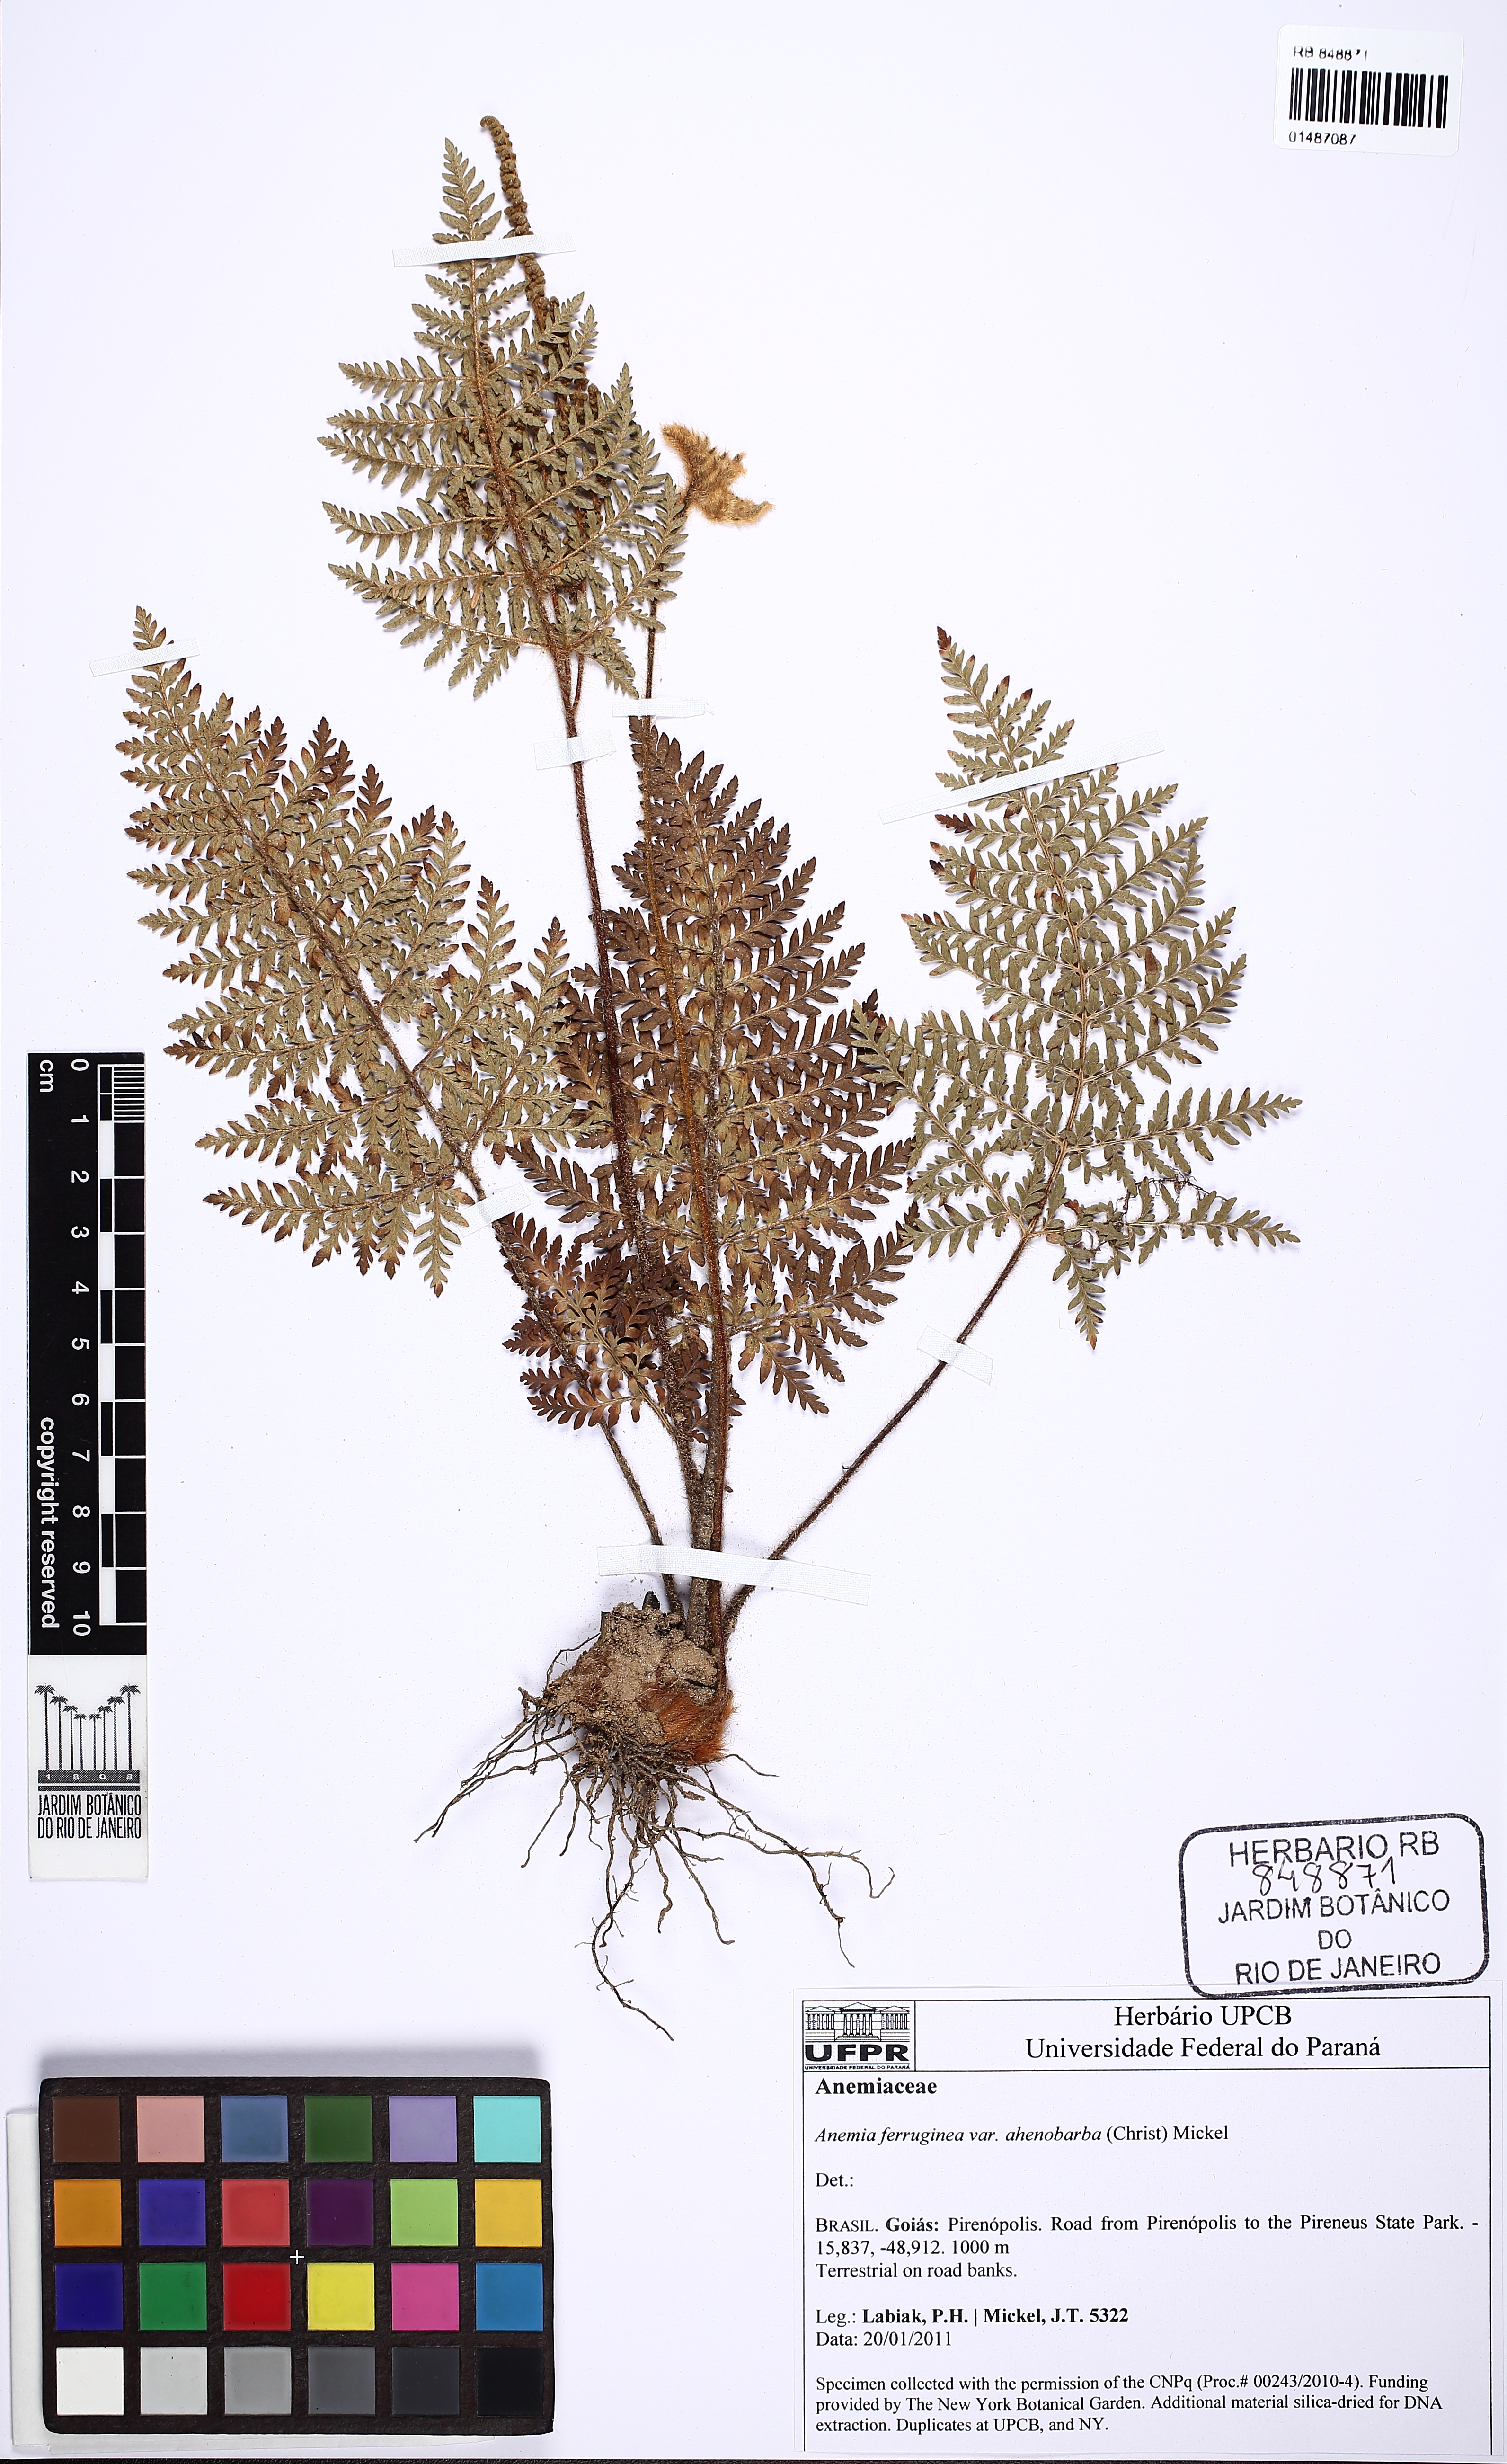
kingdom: Plantae
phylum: Tracheophyta
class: Polypodiopsida
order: Schizaeales
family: Anemiaceae
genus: Anemia
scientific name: Anemia ferruginea
